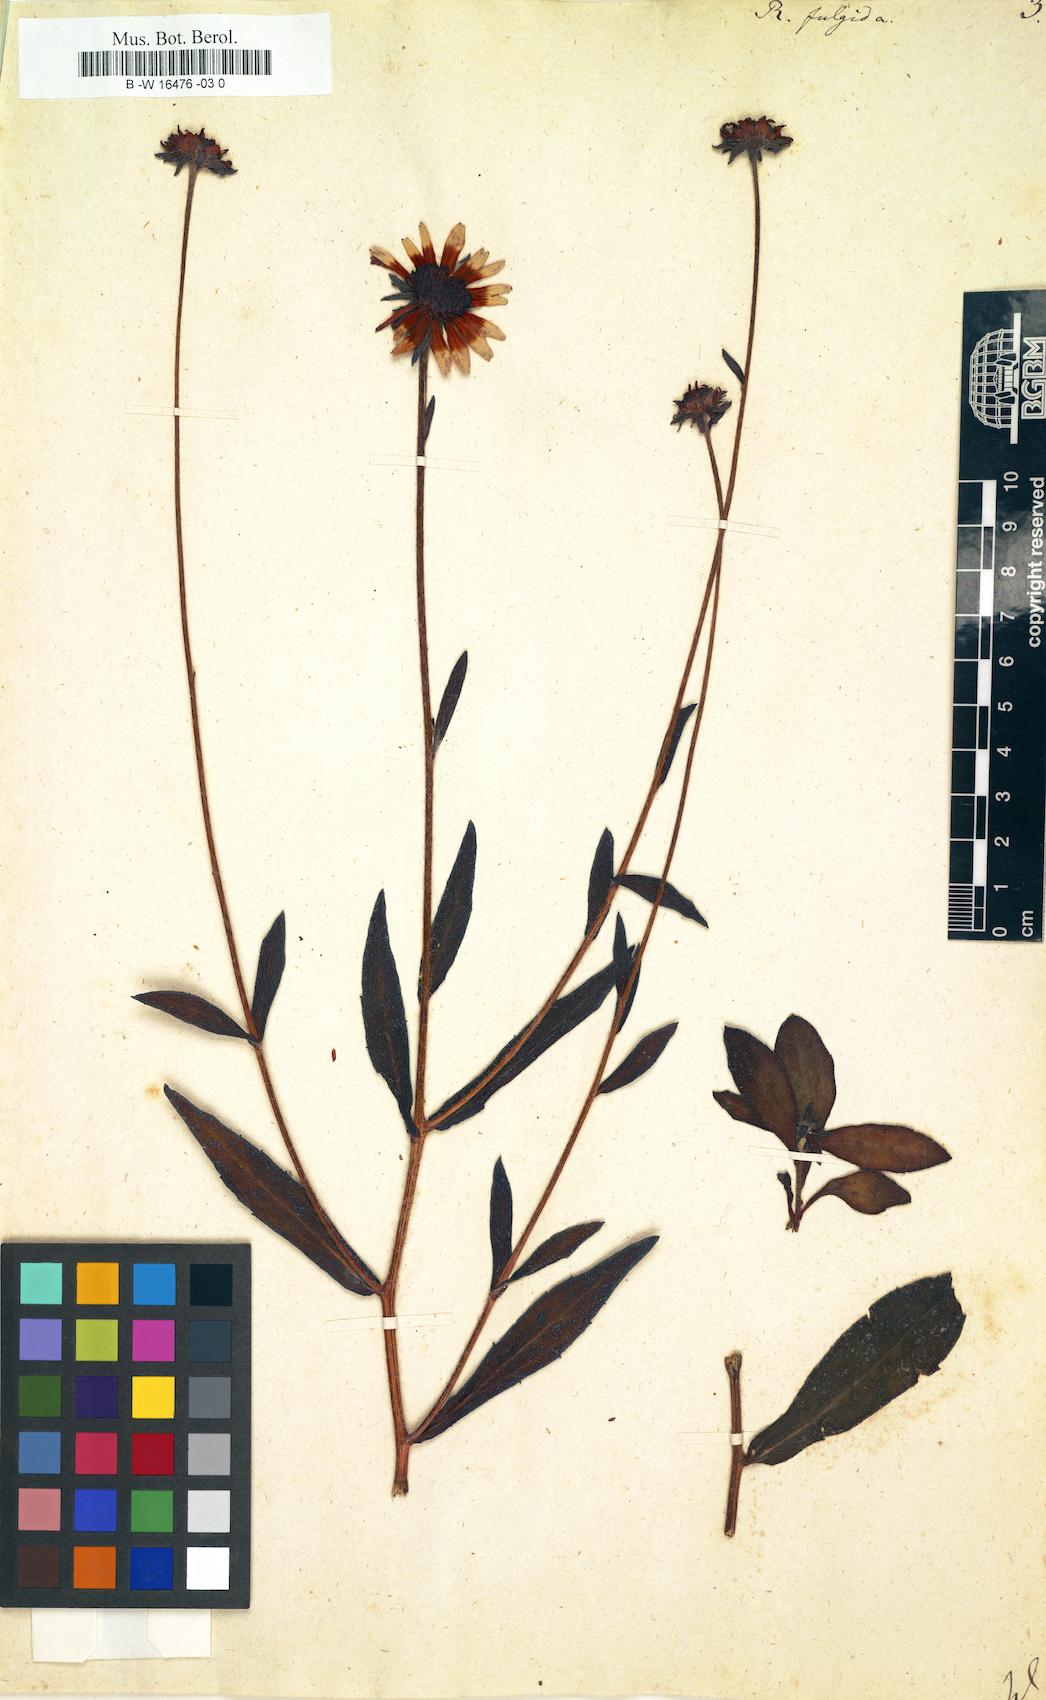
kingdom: Plantae
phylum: Tracheophyta
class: Magnoliopsida
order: Asterales
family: Asteraceae
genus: Rudbeckia
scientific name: Rudbeckia fulgida
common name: Perennial coneflower
